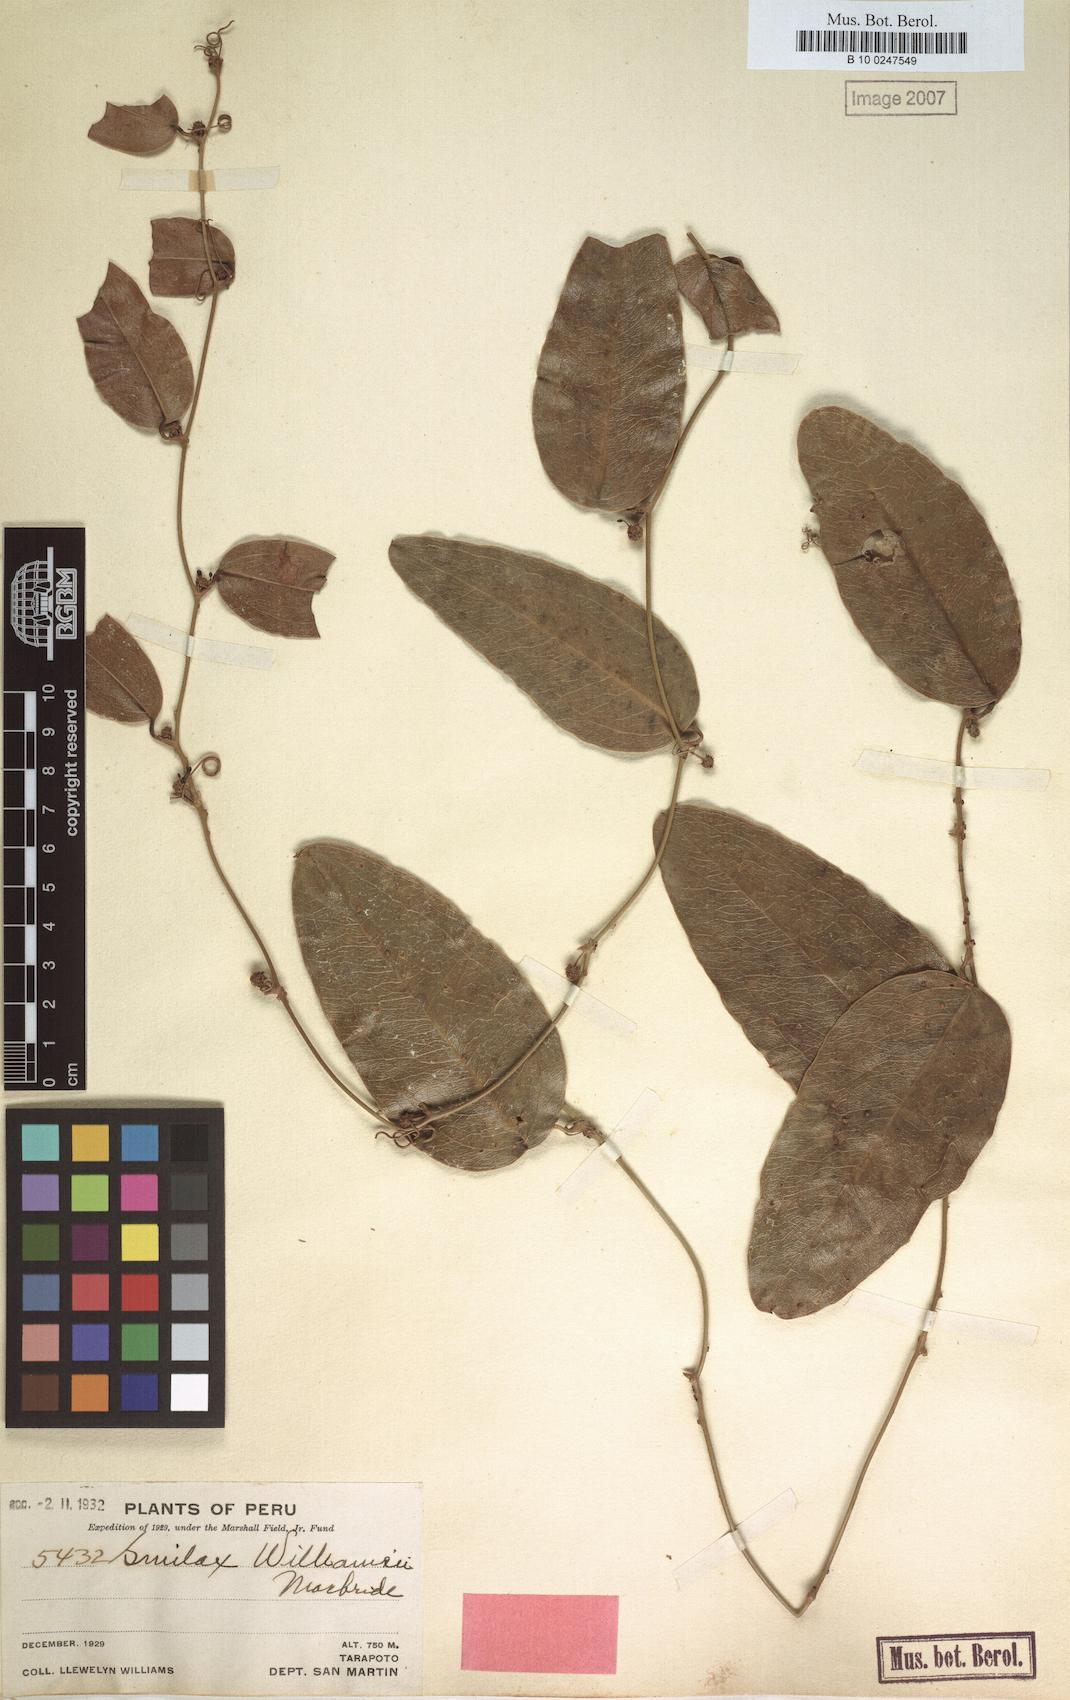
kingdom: Plantae
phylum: Tracheophyta
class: Liliopsida
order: Liliales
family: Smilacaceae
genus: Smilax
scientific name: Smilax williamsii
